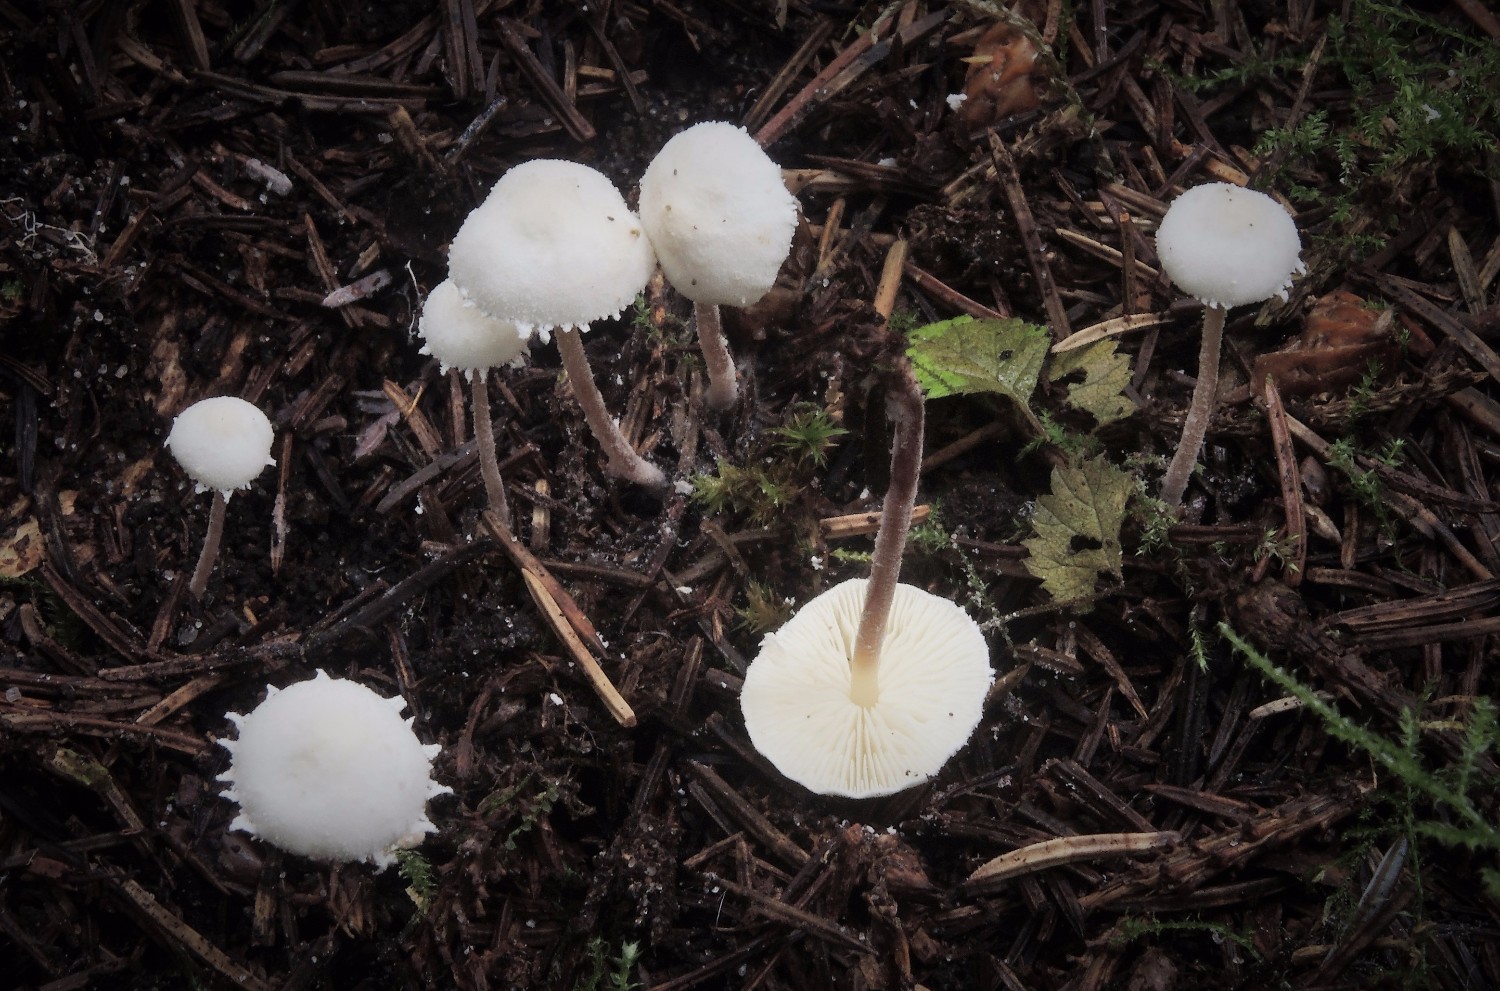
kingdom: Fungi
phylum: Basidiomycota
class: Agaricomycetes
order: Agaricales
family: Agaricaceae
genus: Cystolepiota
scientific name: Cystolepiota seminuda
